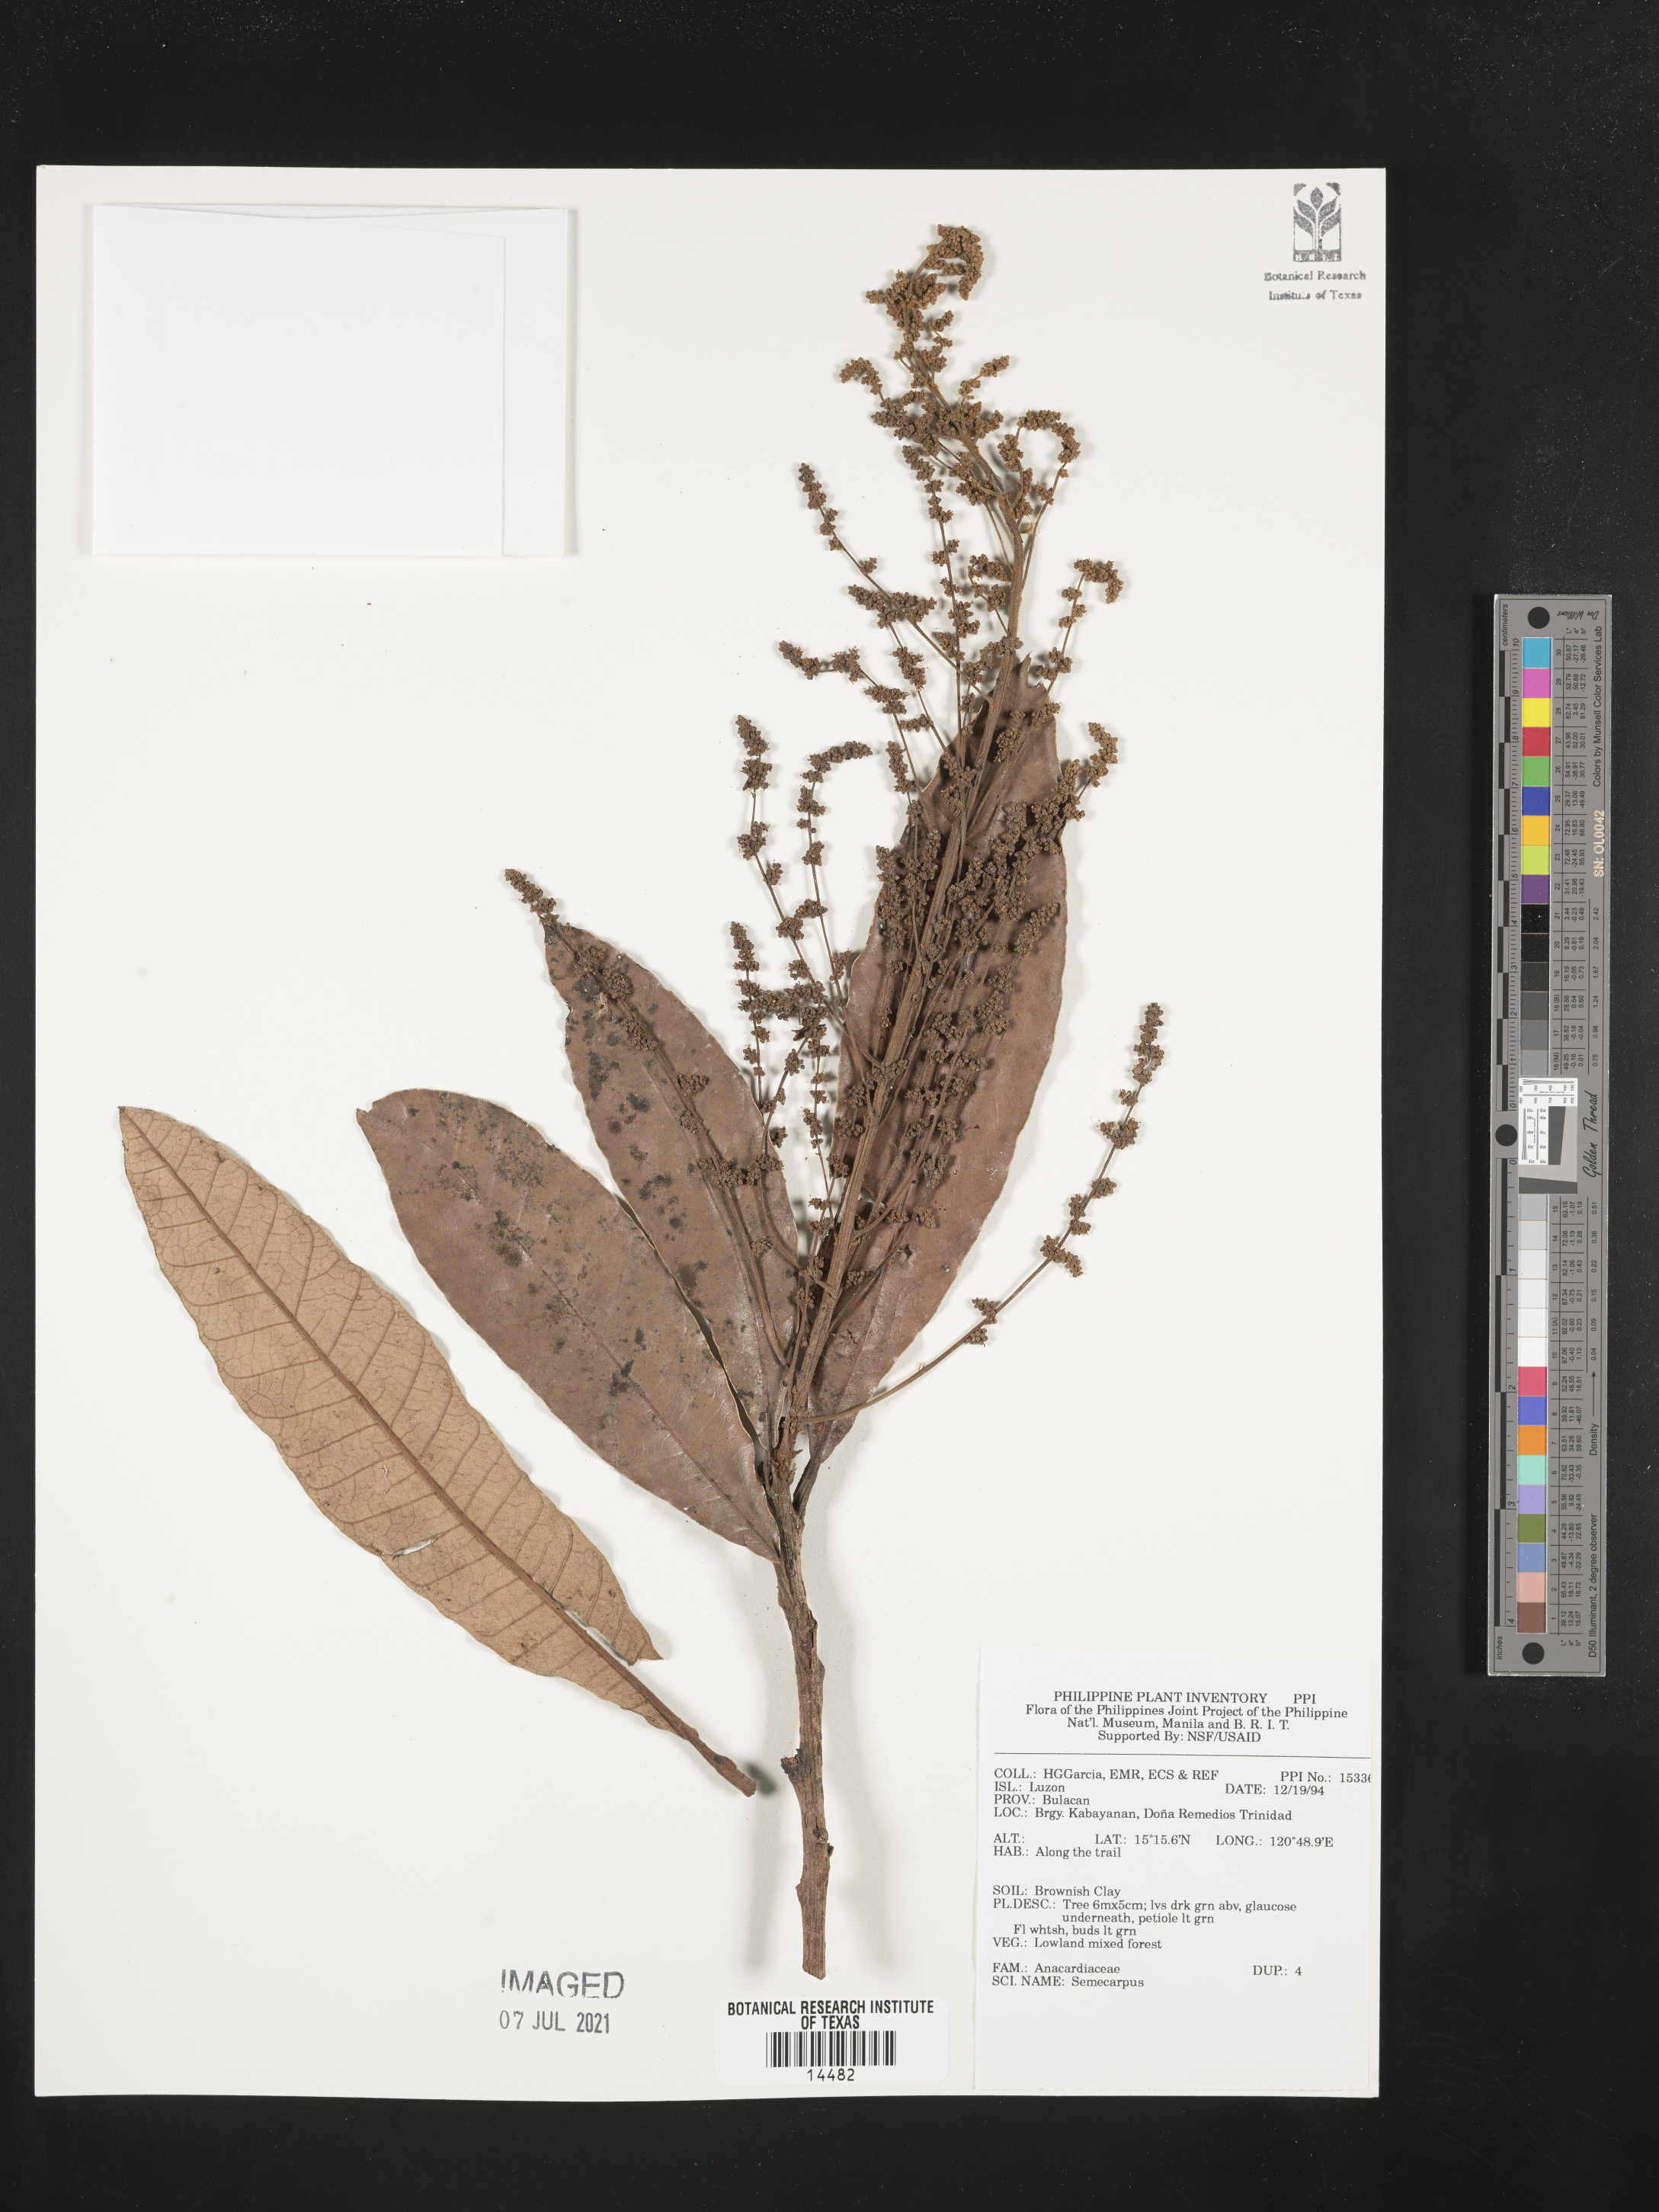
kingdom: Plantae
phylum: Tracheophyta
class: Magnoliopsida
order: Sapindales
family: Anacardiaceae
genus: Semecarpus
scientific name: Semecarpus
